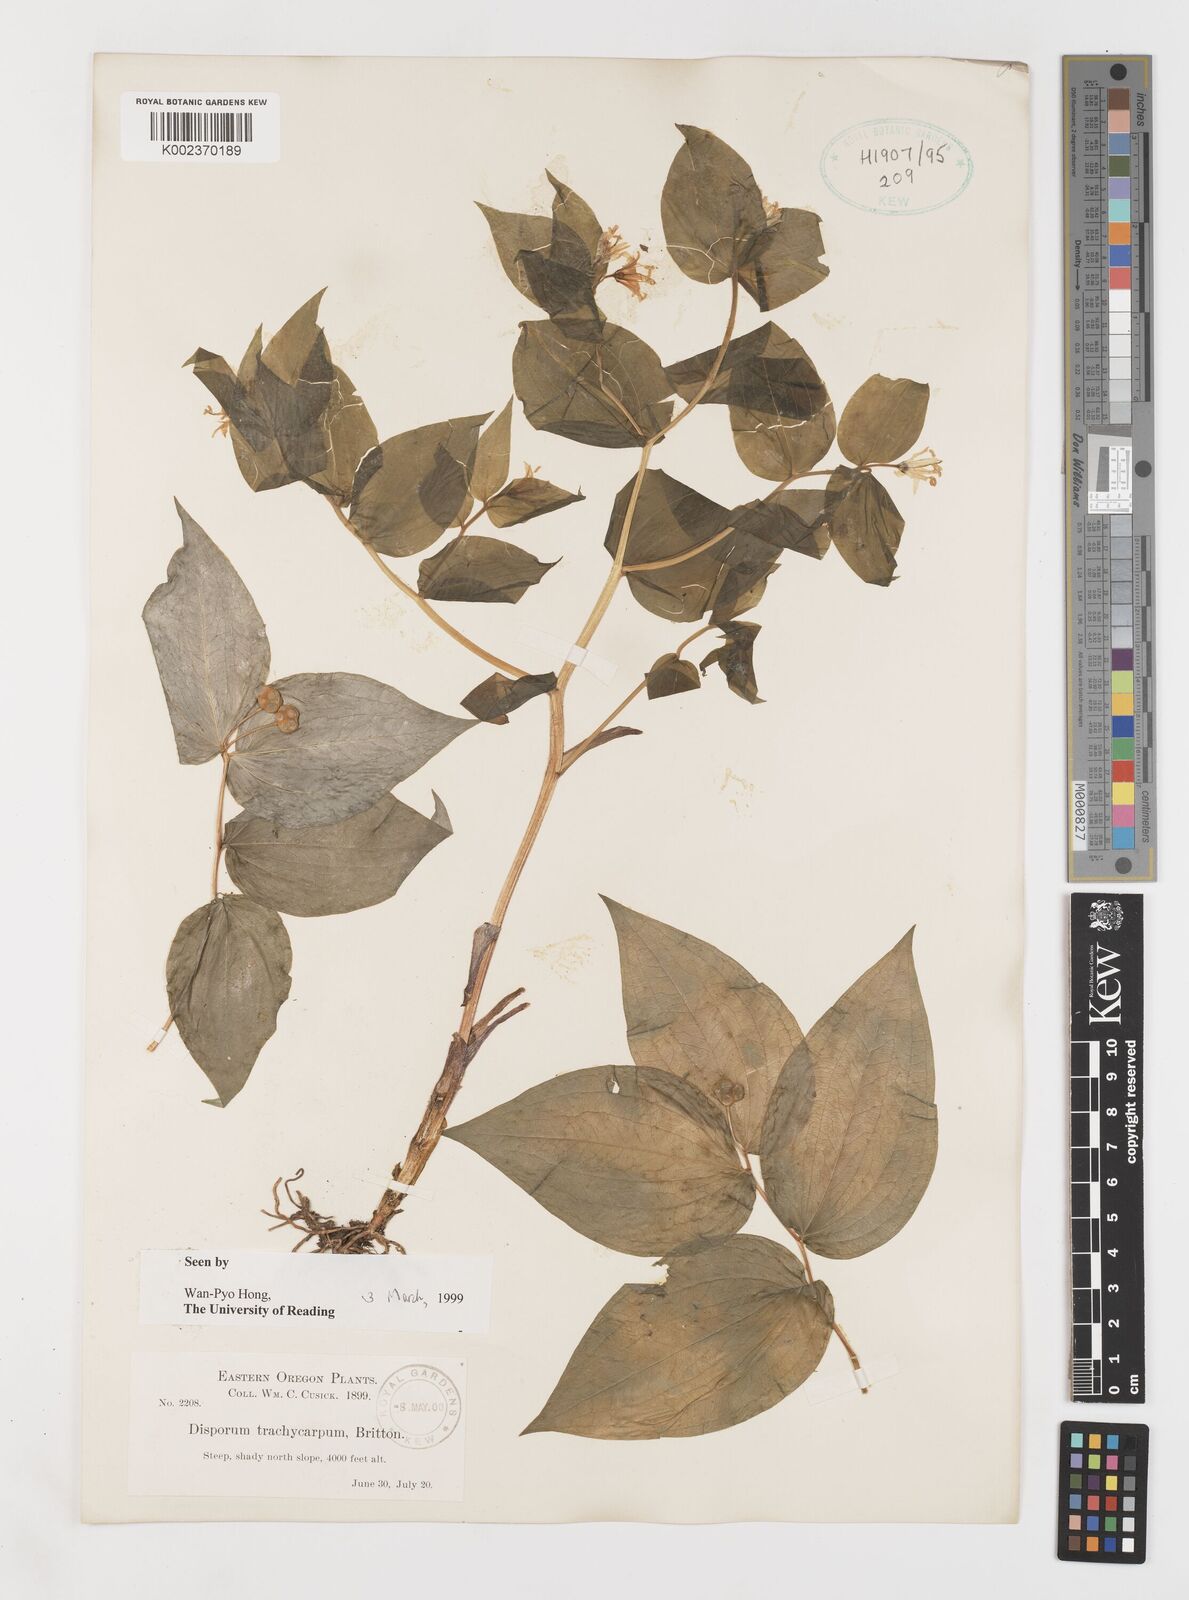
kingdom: Plantae
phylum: Tracheophyta
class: Liliopsida
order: Liliales
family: Liliaceae
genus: Prosartes
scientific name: Prosartes trachycarpa
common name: Rough-fruit fairy-bells
